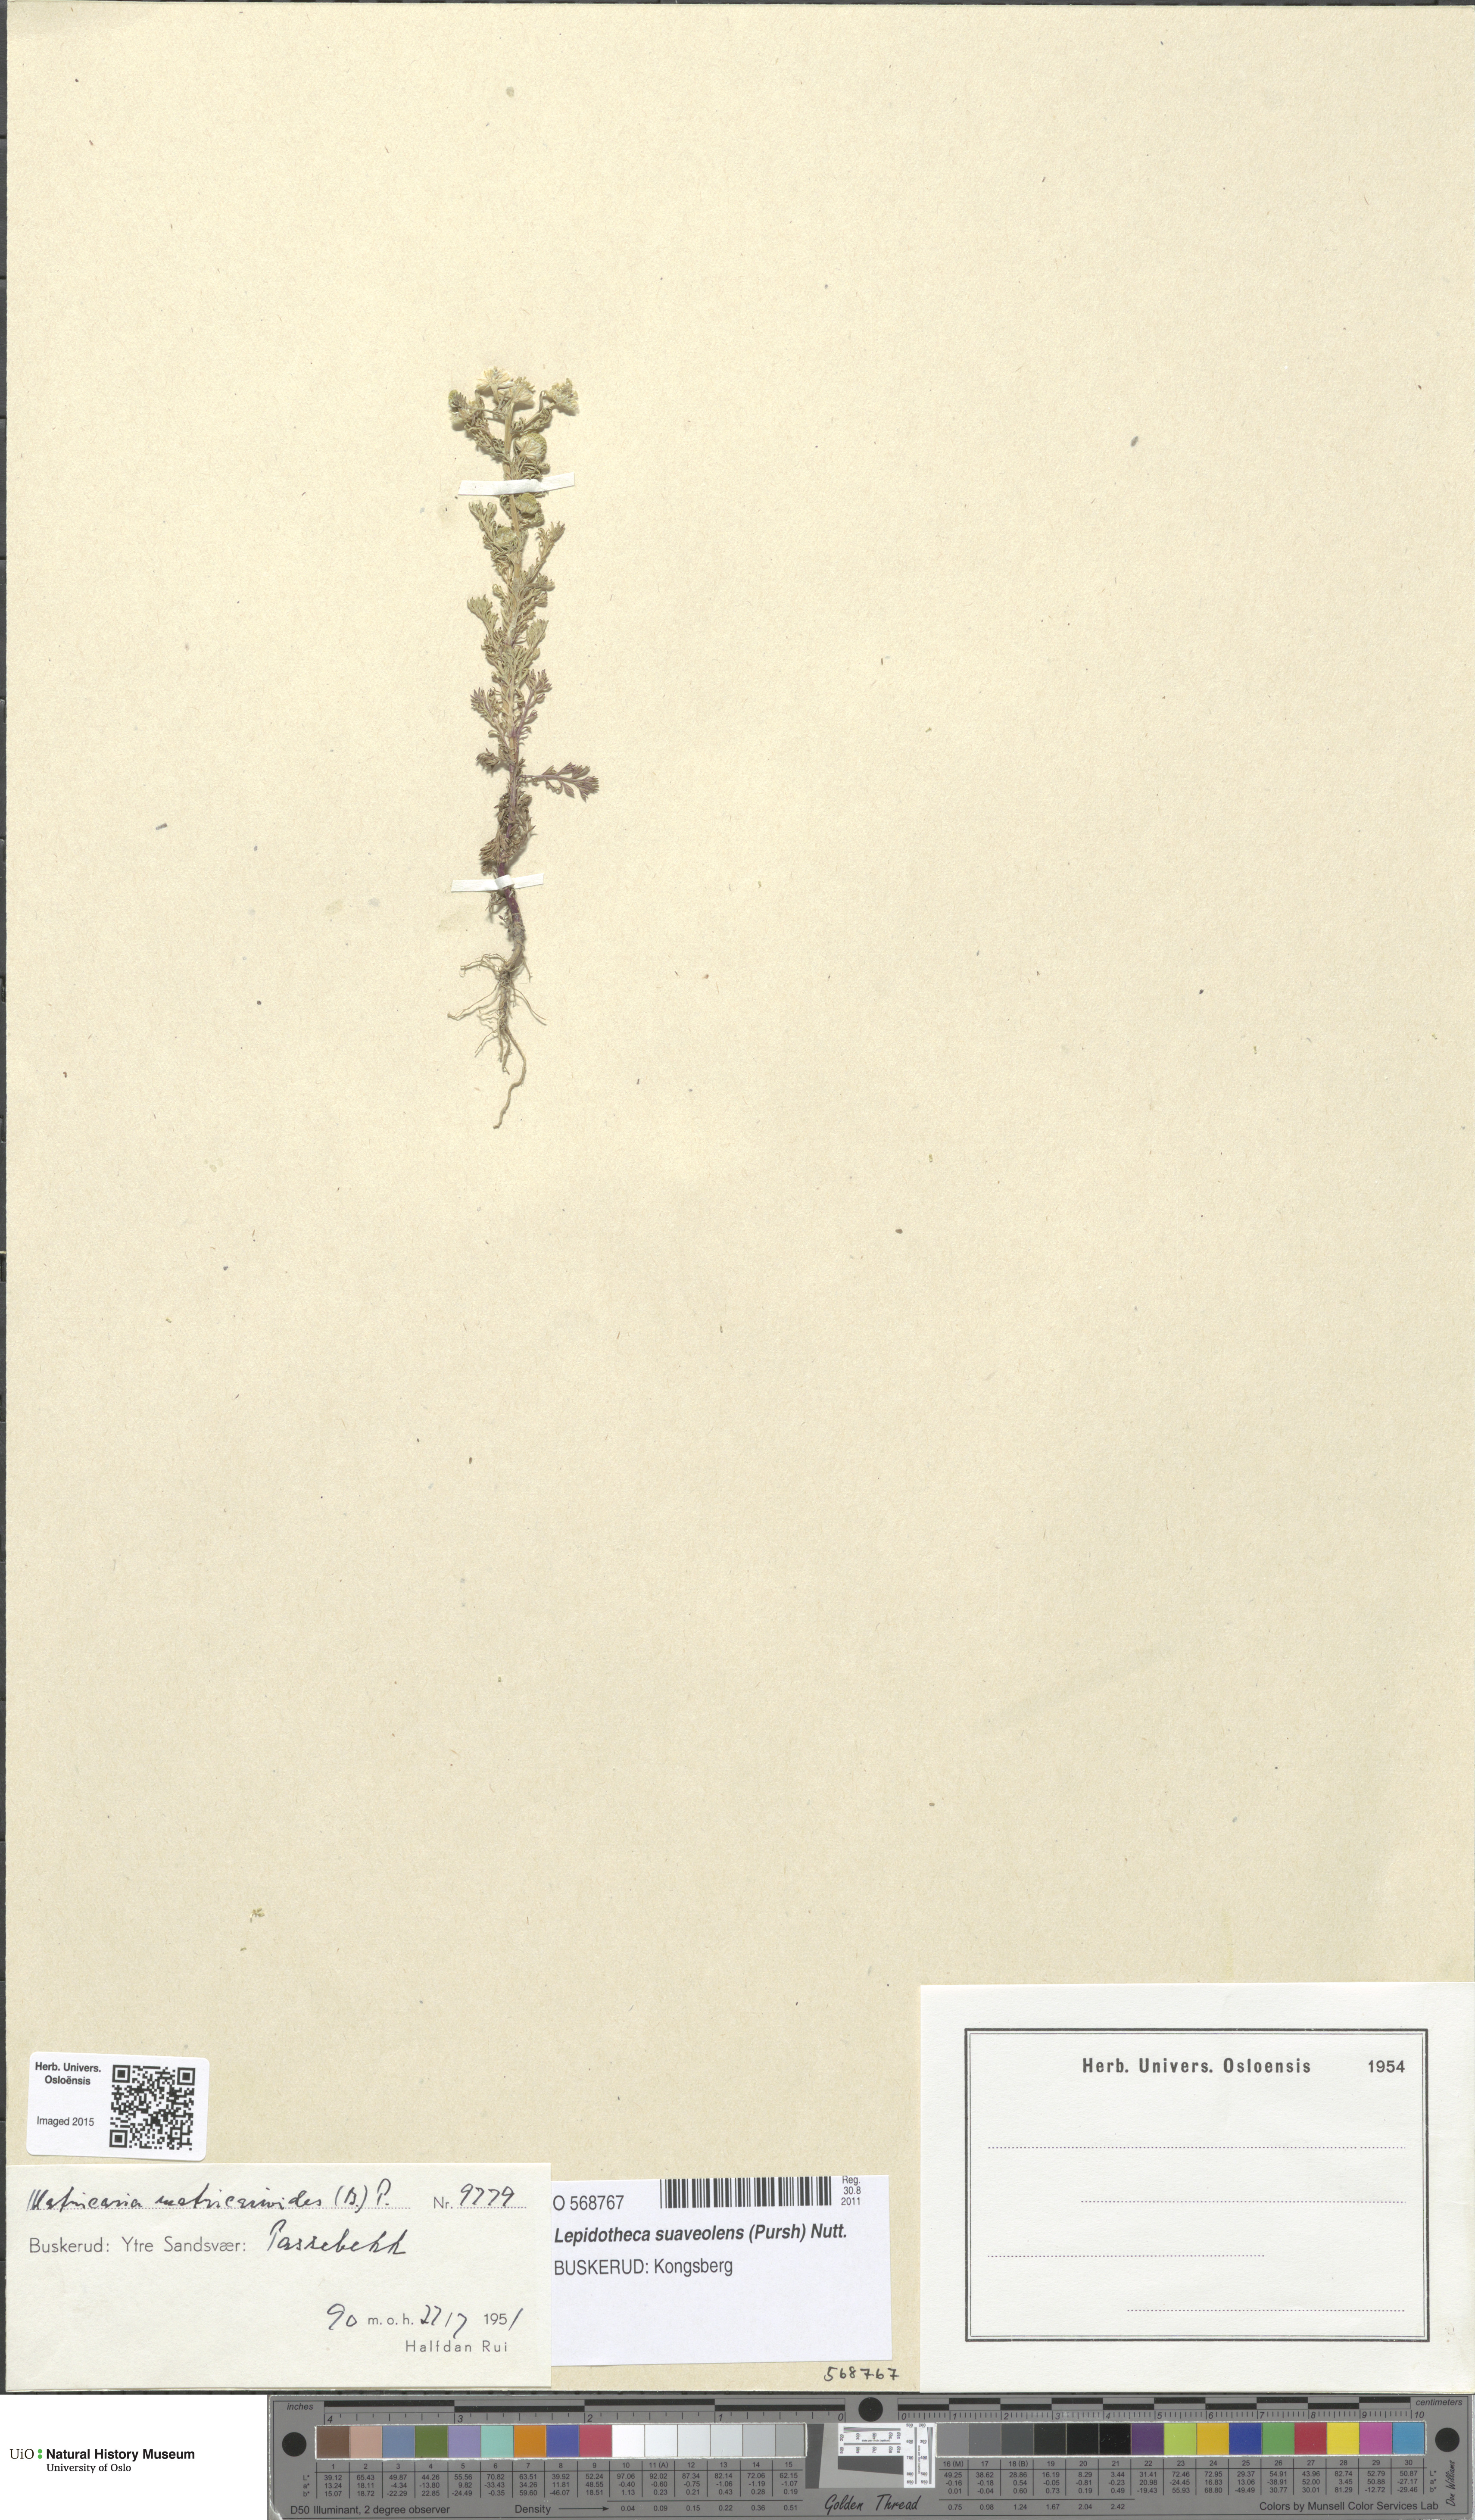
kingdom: Plantae
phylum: Tracheophyta
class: Magnoliopsida
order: Asterales
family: Asteraceae
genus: Matricaria
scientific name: Matricaria discoidea
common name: Disc mayweed
